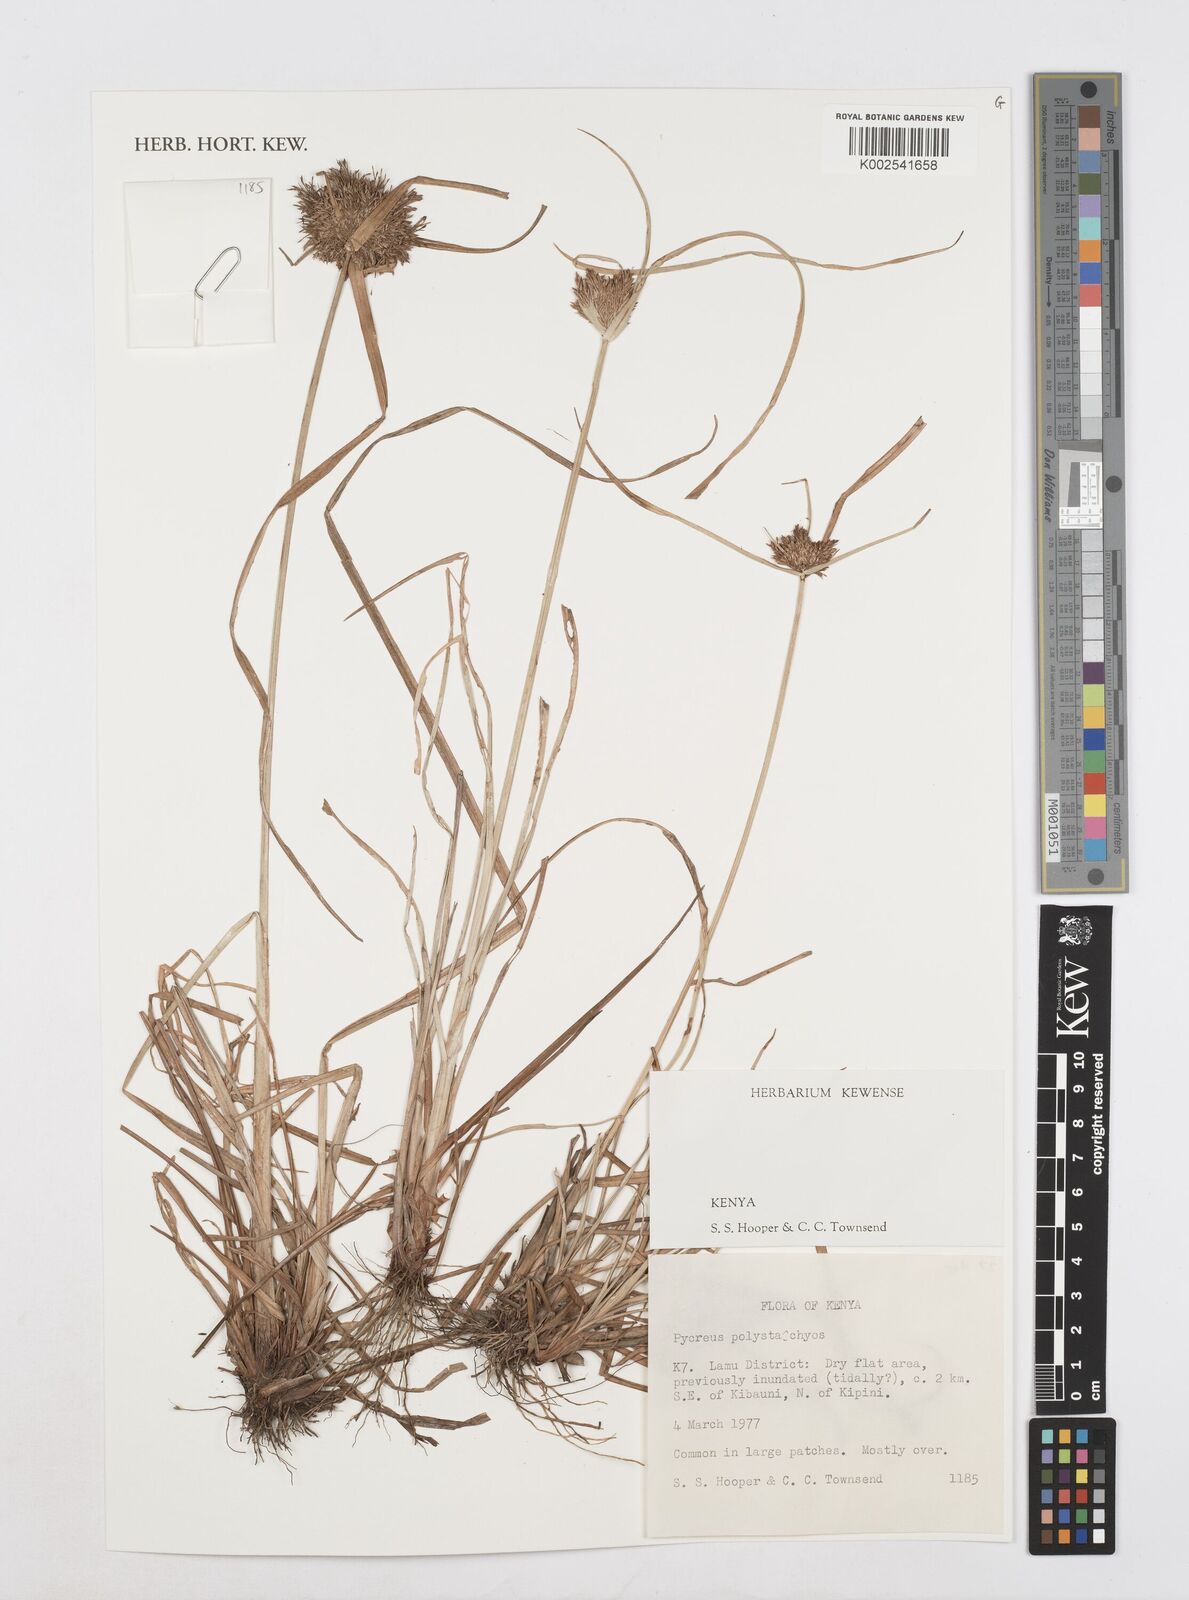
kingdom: Plantae
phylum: Tracheophyta
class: Liliopsida
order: Poales
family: Cyperaceae
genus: Cyperus
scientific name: Cyperus polystachyos
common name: Bunchy flat sedge
